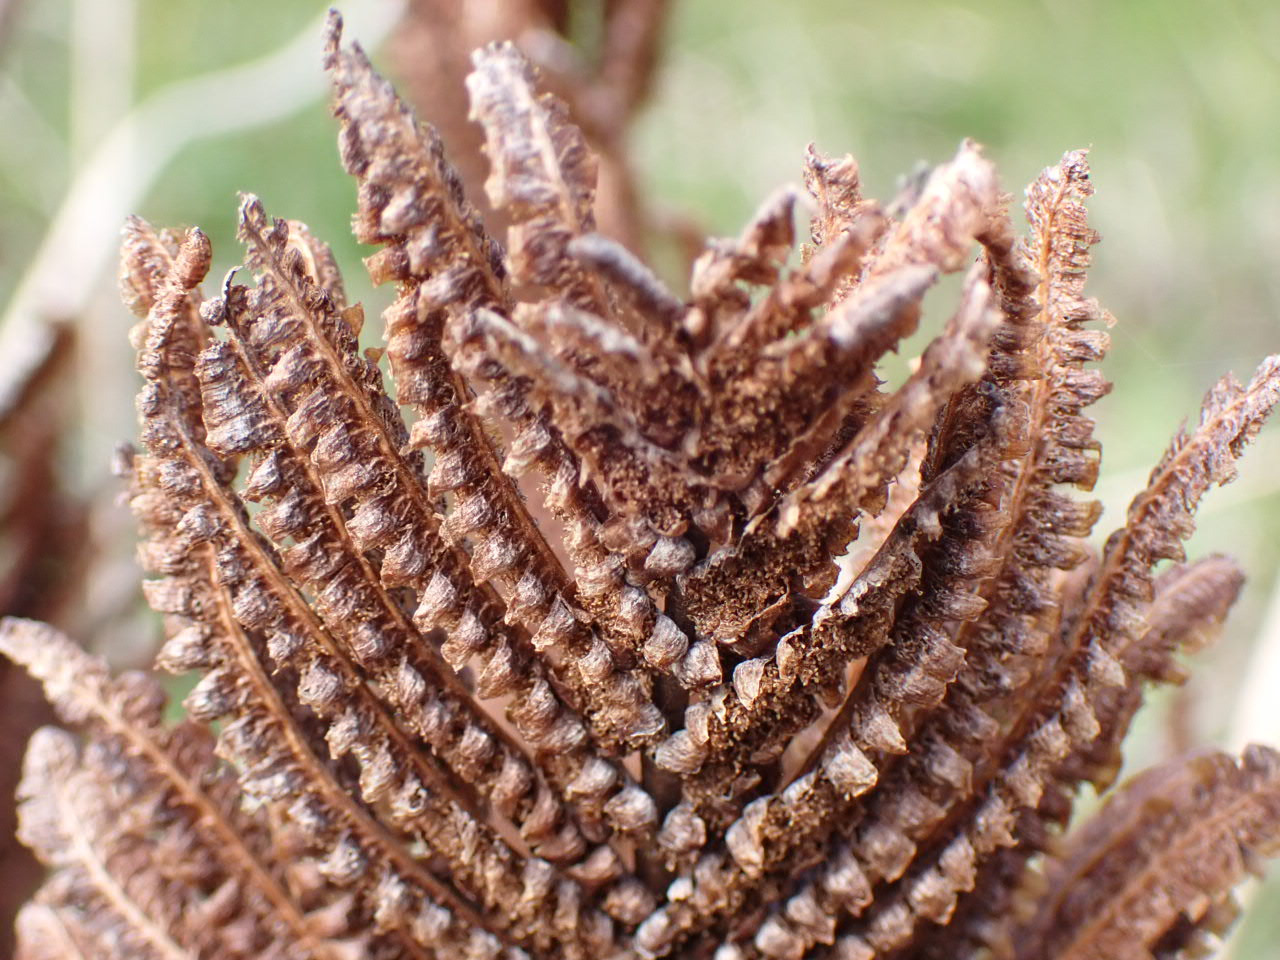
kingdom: Plantae
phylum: Tracheophyta
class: Polypodiopsida
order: Polypodiales
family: Onocleaceae
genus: Matteuccia
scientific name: Matteuccia struthiopteris
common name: Strudsvinge
